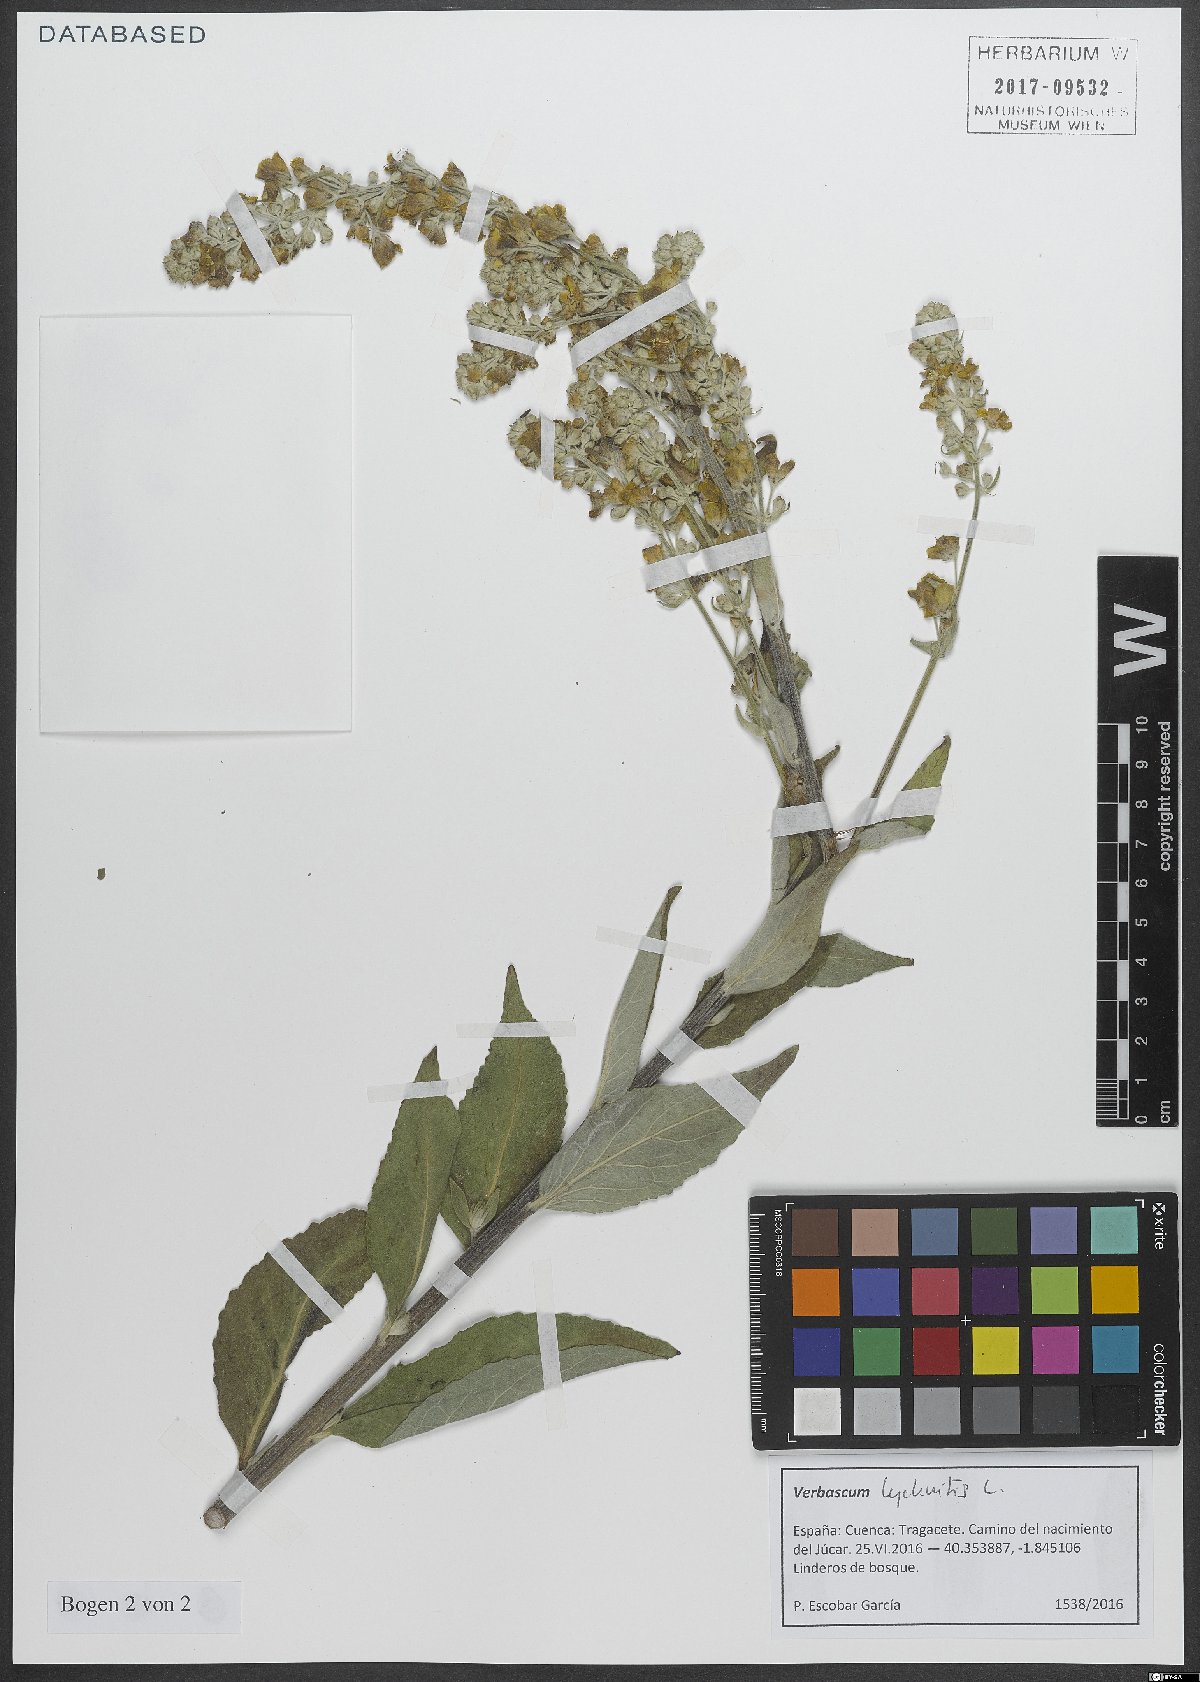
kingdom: Plantae
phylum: Tracheophyta
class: Magnoliopsida
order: Lamiales
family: Scrophulariaceae
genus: Verbascum
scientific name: Verbascum lychnitis
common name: White mullein
